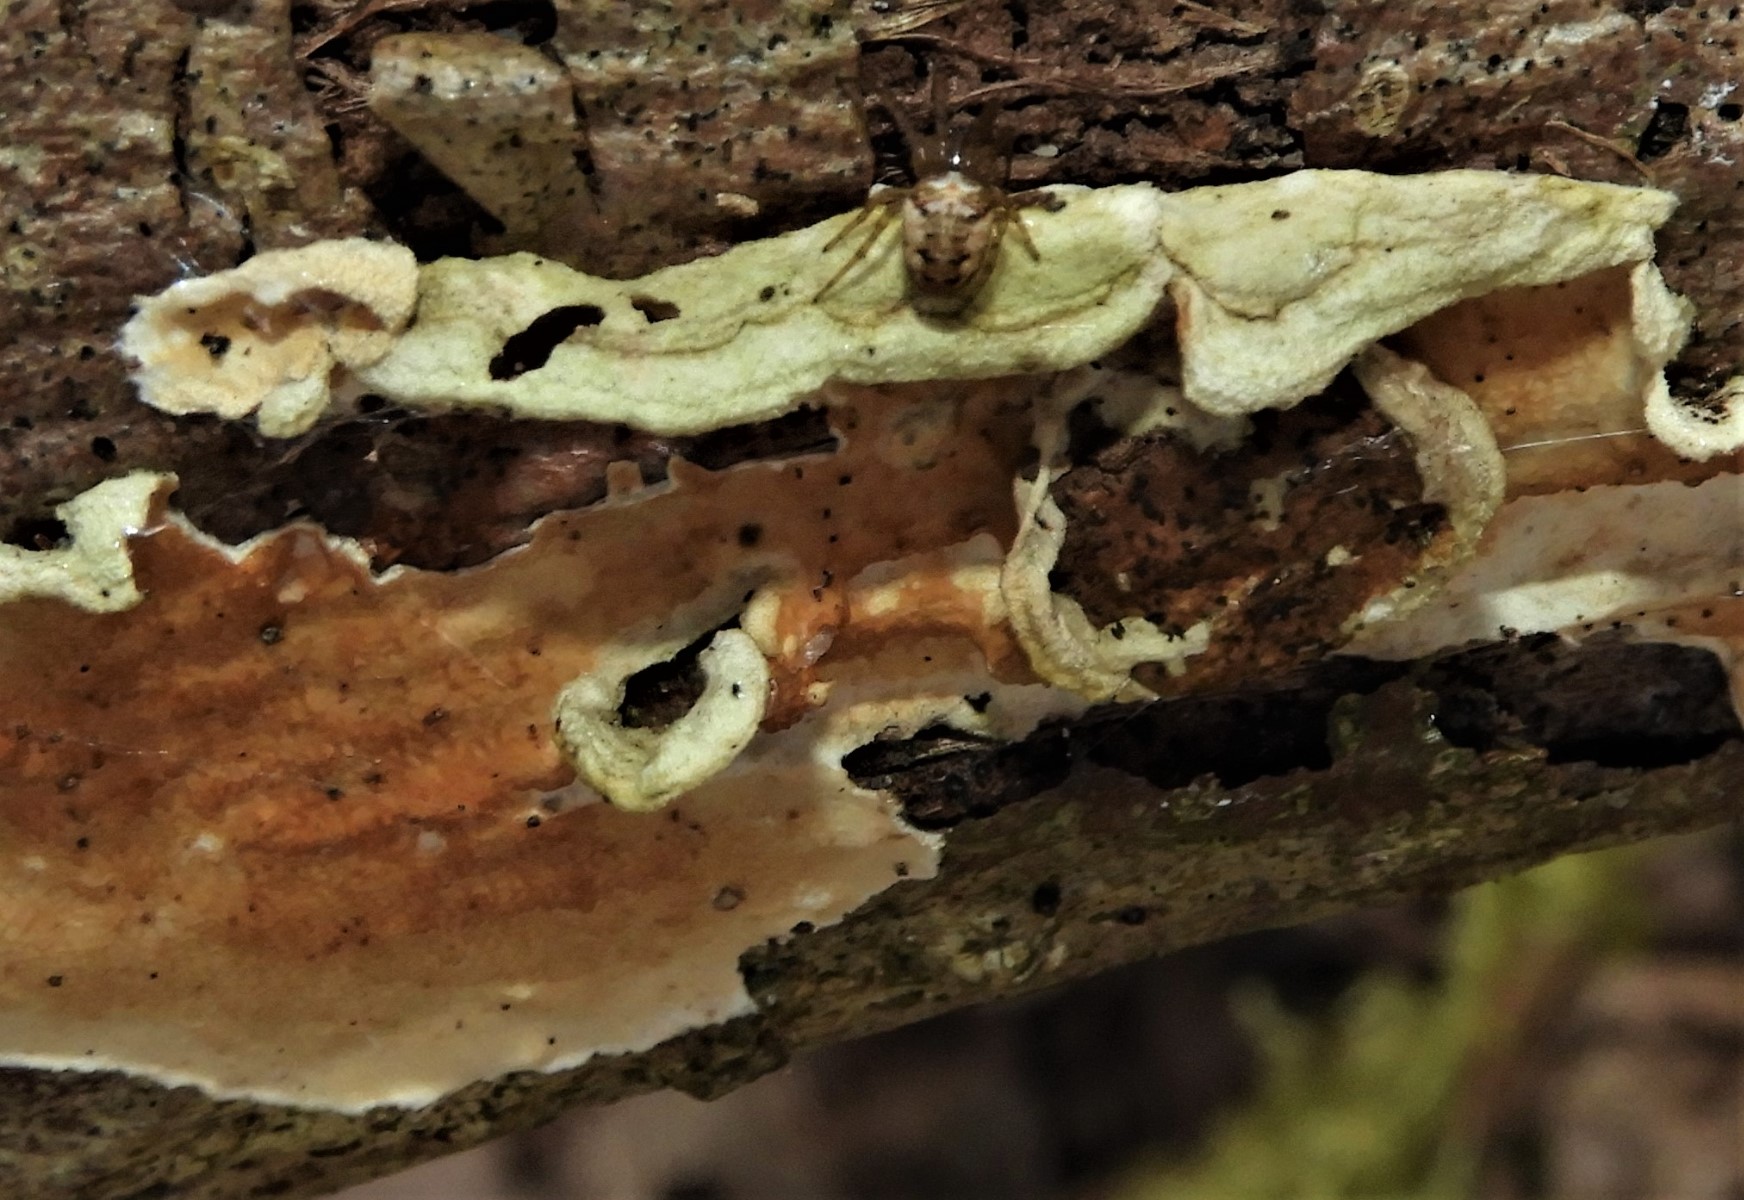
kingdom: Fungi
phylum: Basidiomycota
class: Agaricomycetes
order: Russulales
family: Stereaceae
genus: Stereum
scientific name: Stereum subtomentosum
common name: smuk lædersvamp
